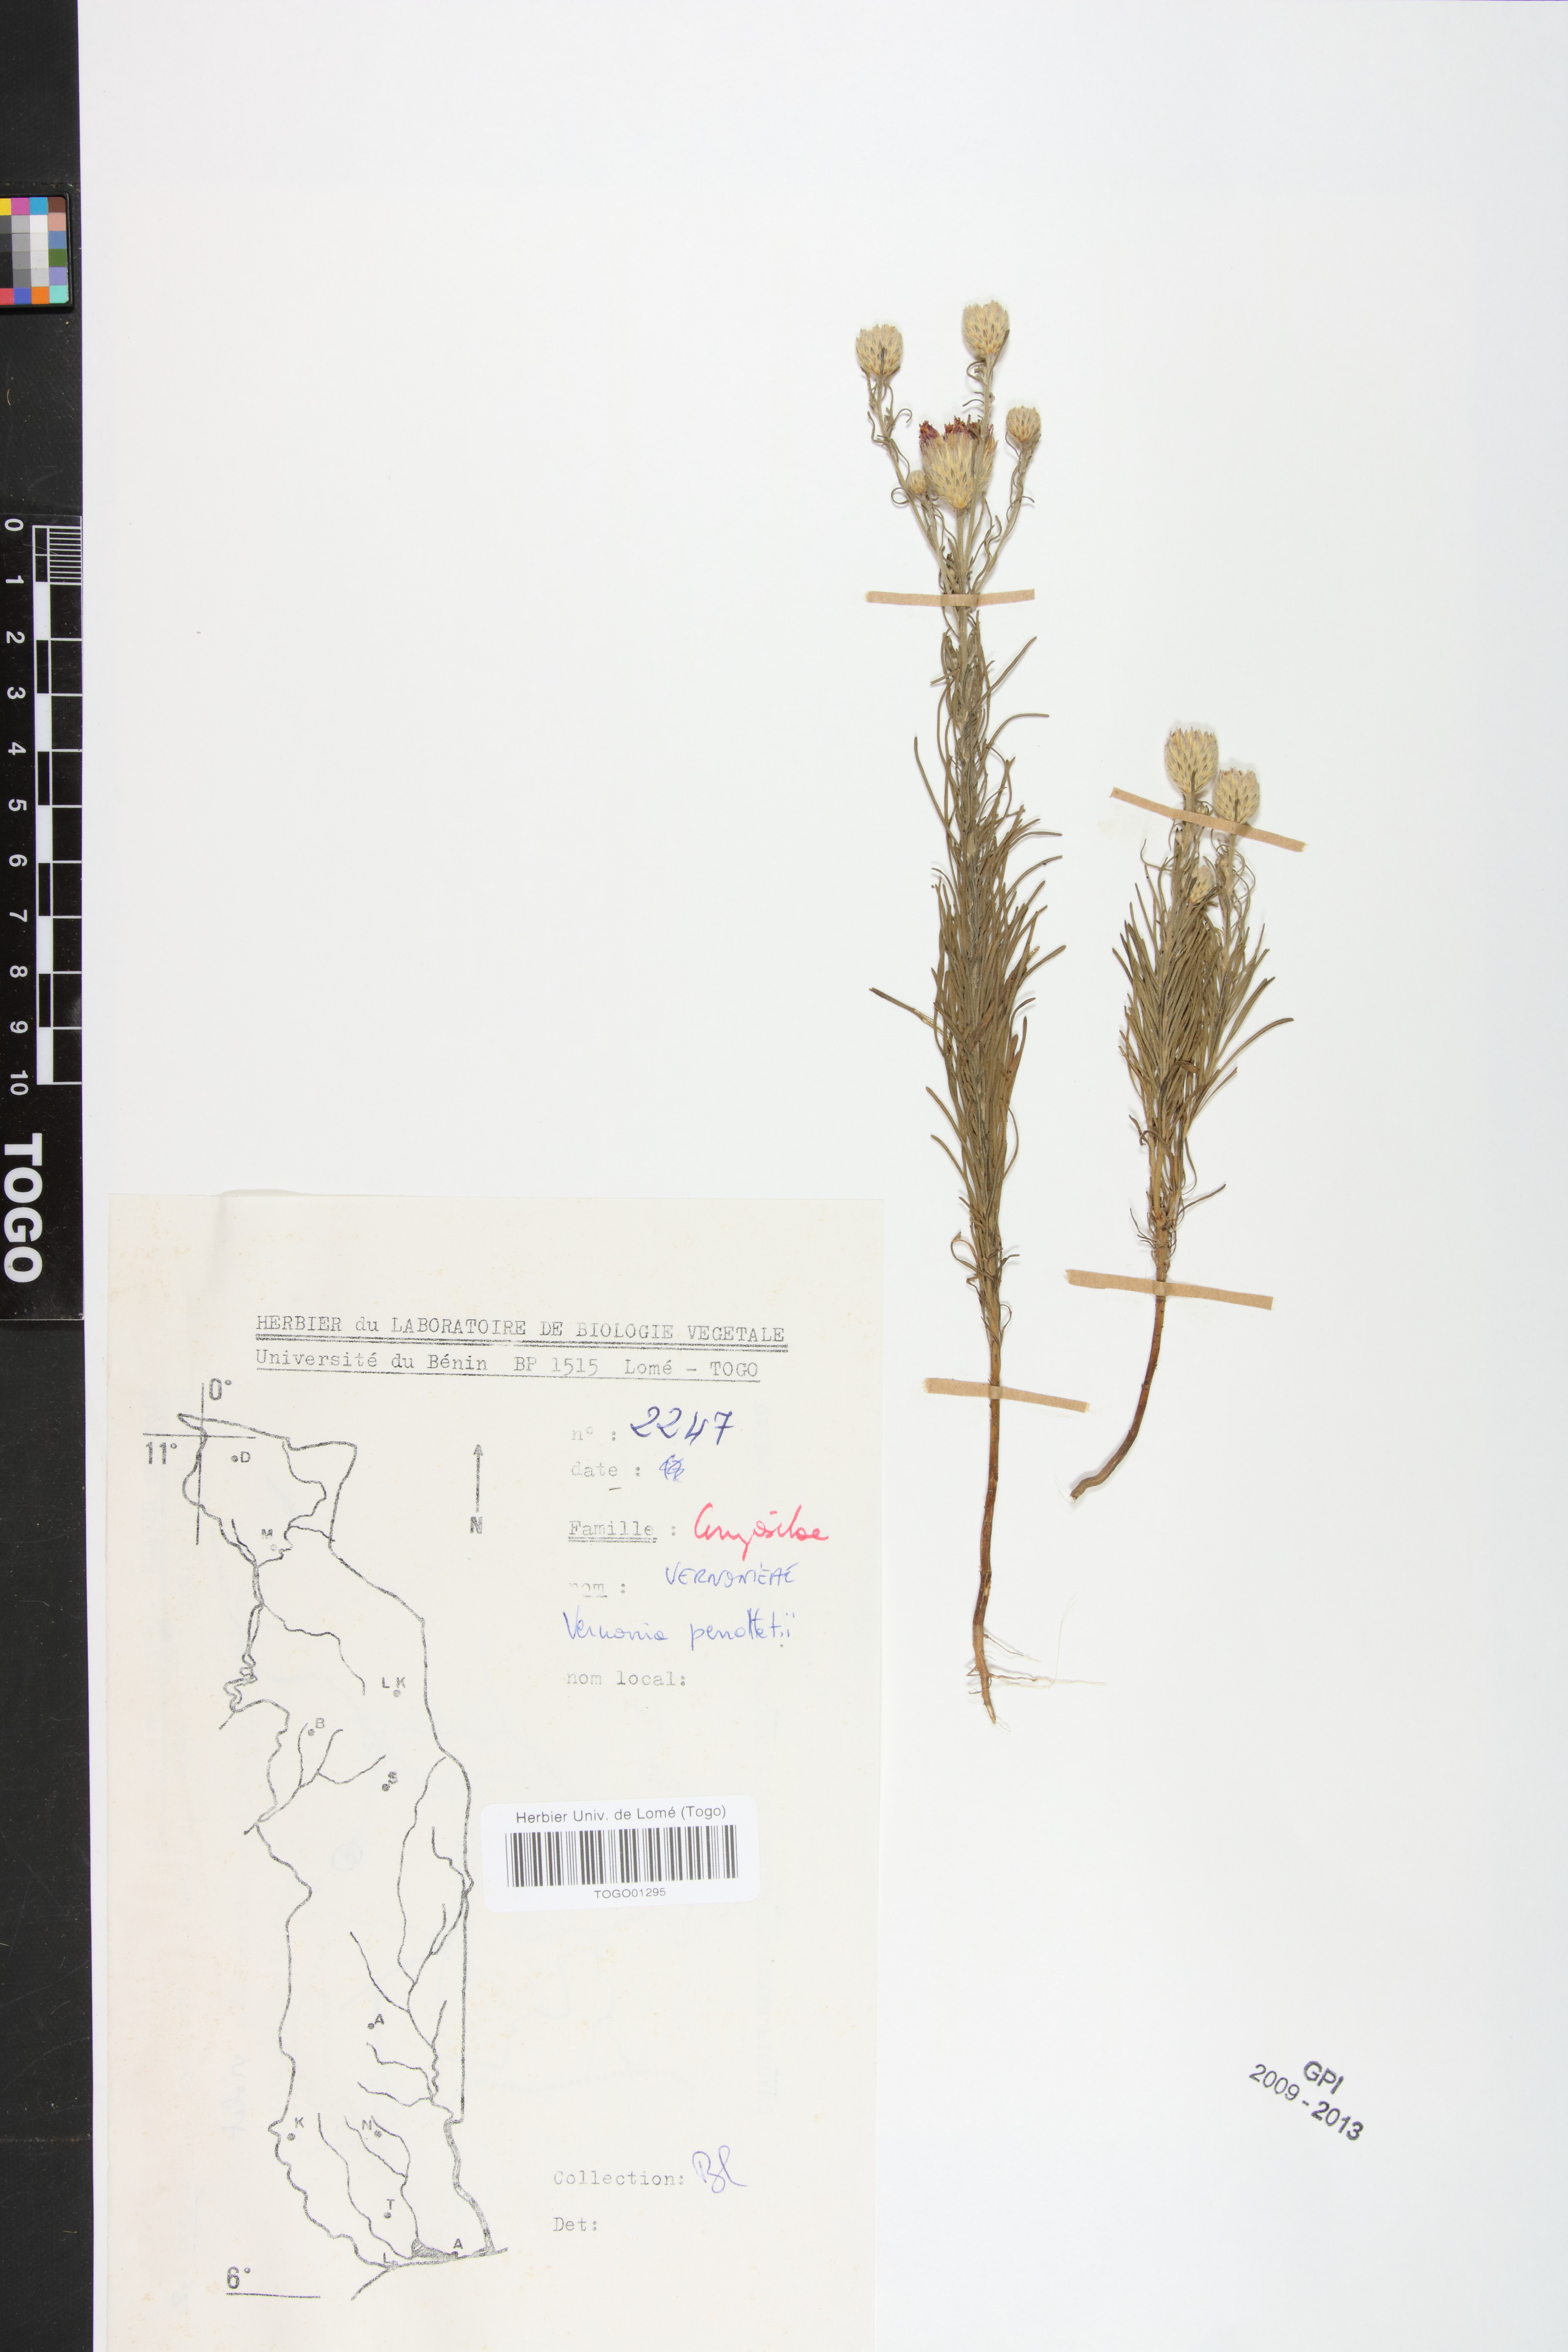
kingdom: Plantae
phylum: Tracheophyta
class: Magnoliopsida
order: Asterales
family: Asteraceae
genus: Crystallopollen
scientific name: Crystallopollen serratuloides
